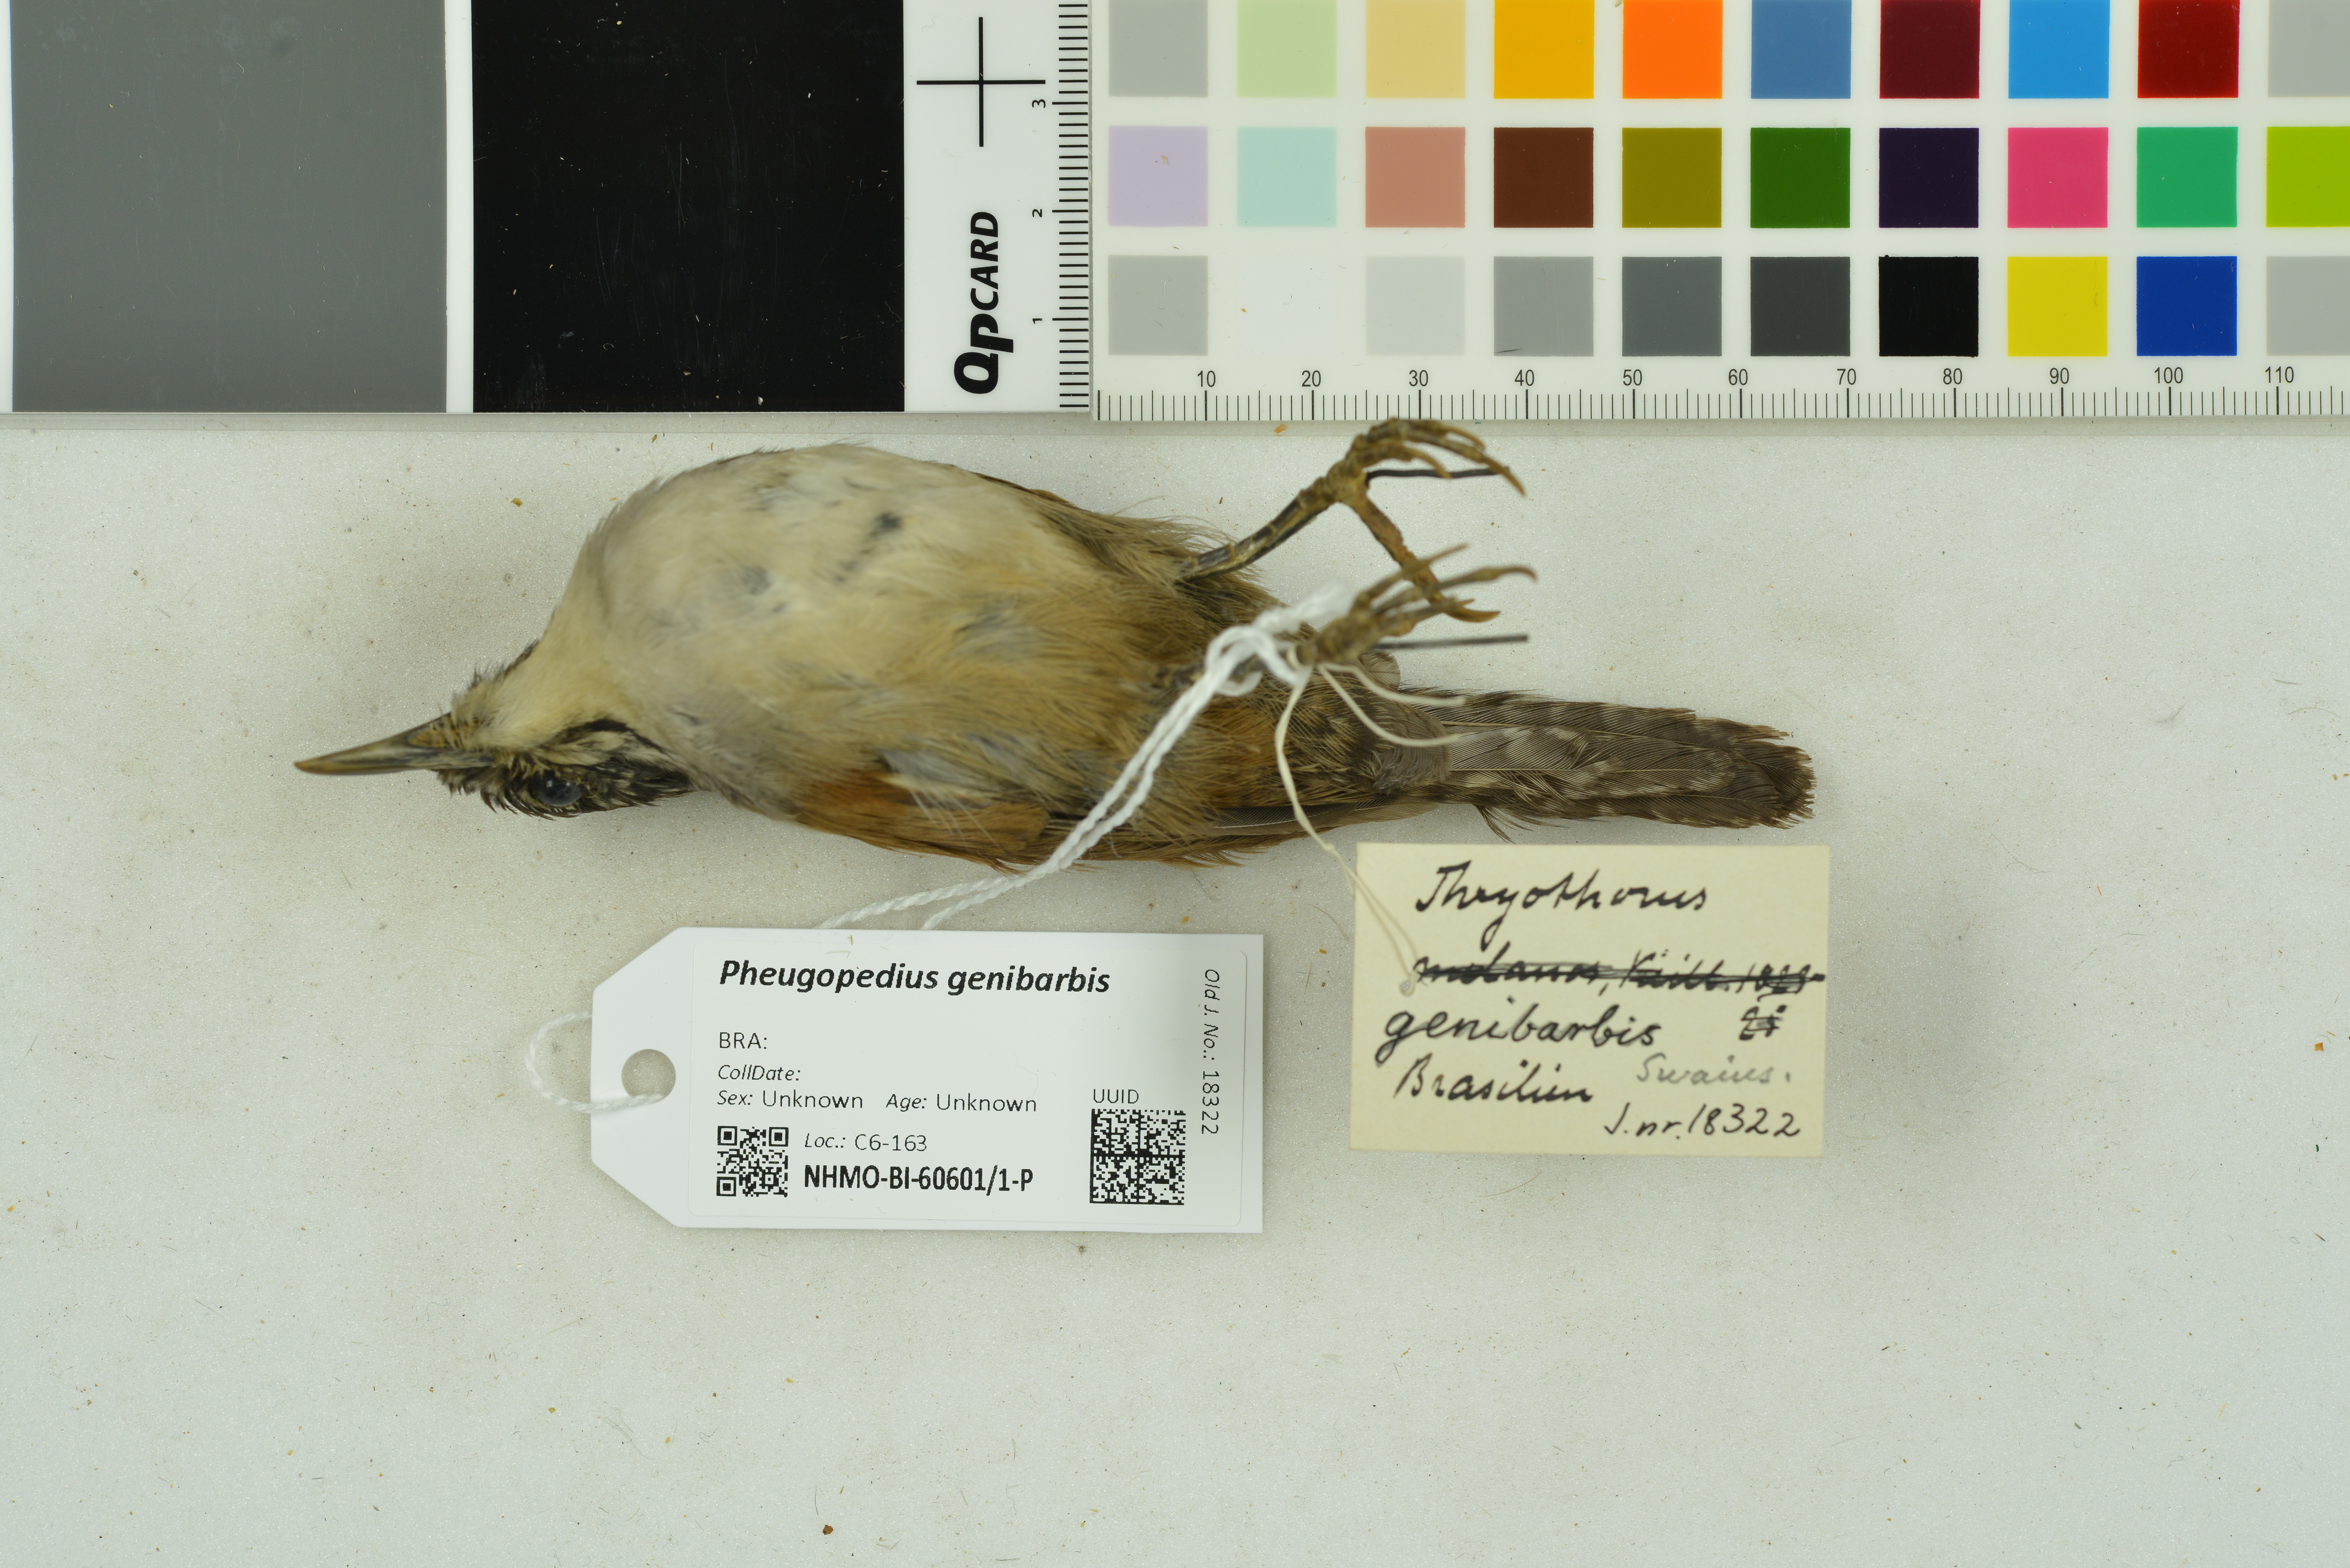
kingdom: Animalia
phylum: Chordata
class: Aves
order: Passeriformes
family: Troglodytidae
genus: Pheugopedius
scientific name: Pheugopedius genibarbis
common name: Moustached wren
